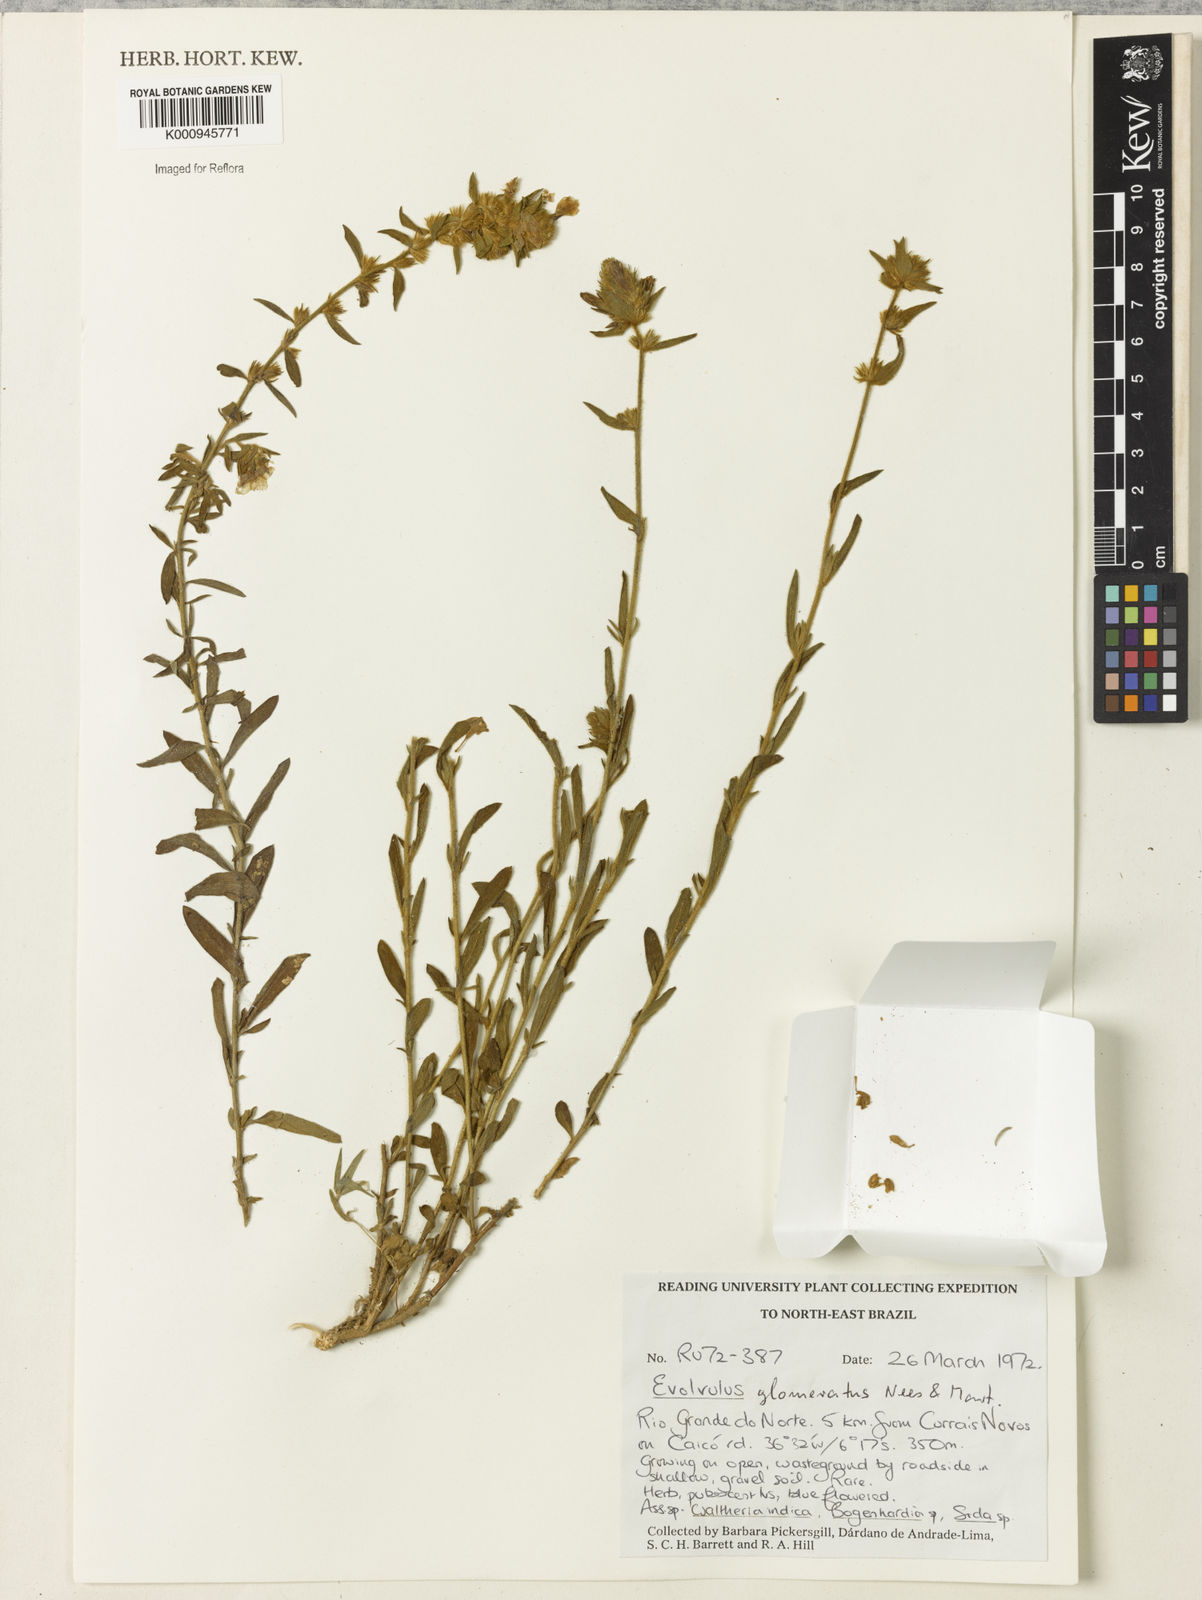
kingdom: Plantae
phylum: Tracheophyta
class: Magnoliopsida
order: Solanales
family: Convolvulaceae
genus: Evolvulus
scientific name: Evolvulus glomeratus
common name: Brazilian dwarf morning-glory
